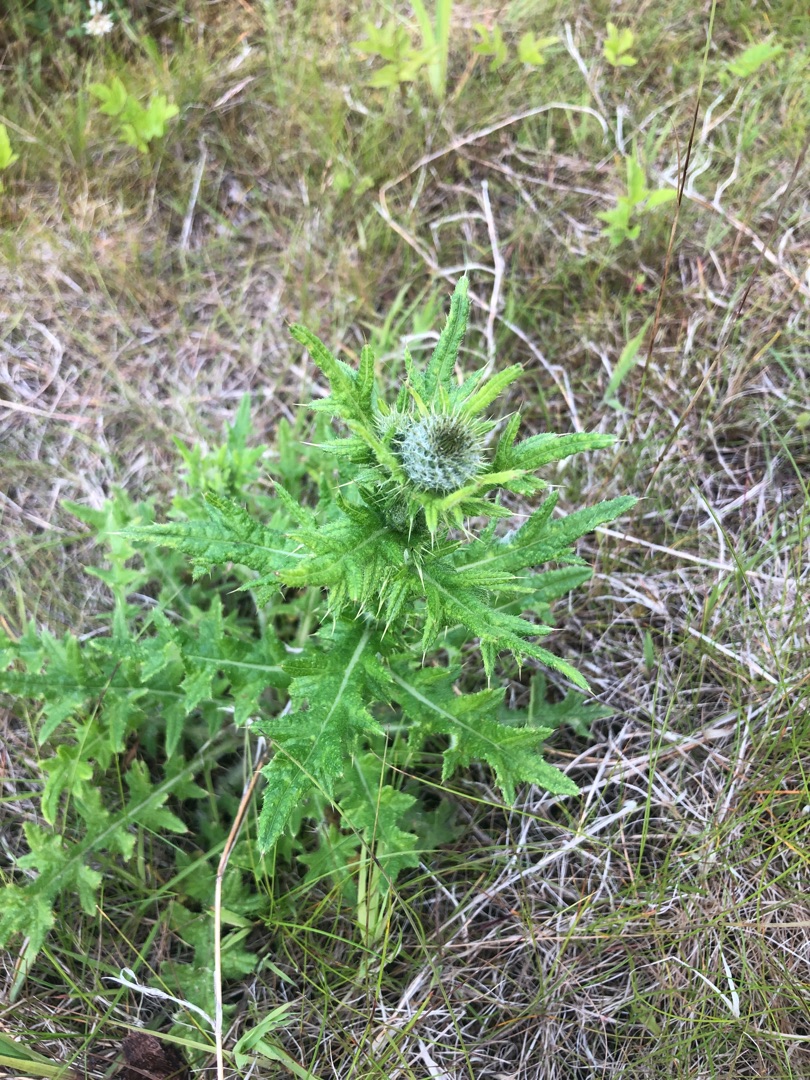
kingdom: Plantae
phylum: Tracheophyta
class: Magnoliopsida
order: Asterales
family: Asteraceae
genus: Cirsium
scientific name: Cirsium vulgare
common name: Horse-tidsel
